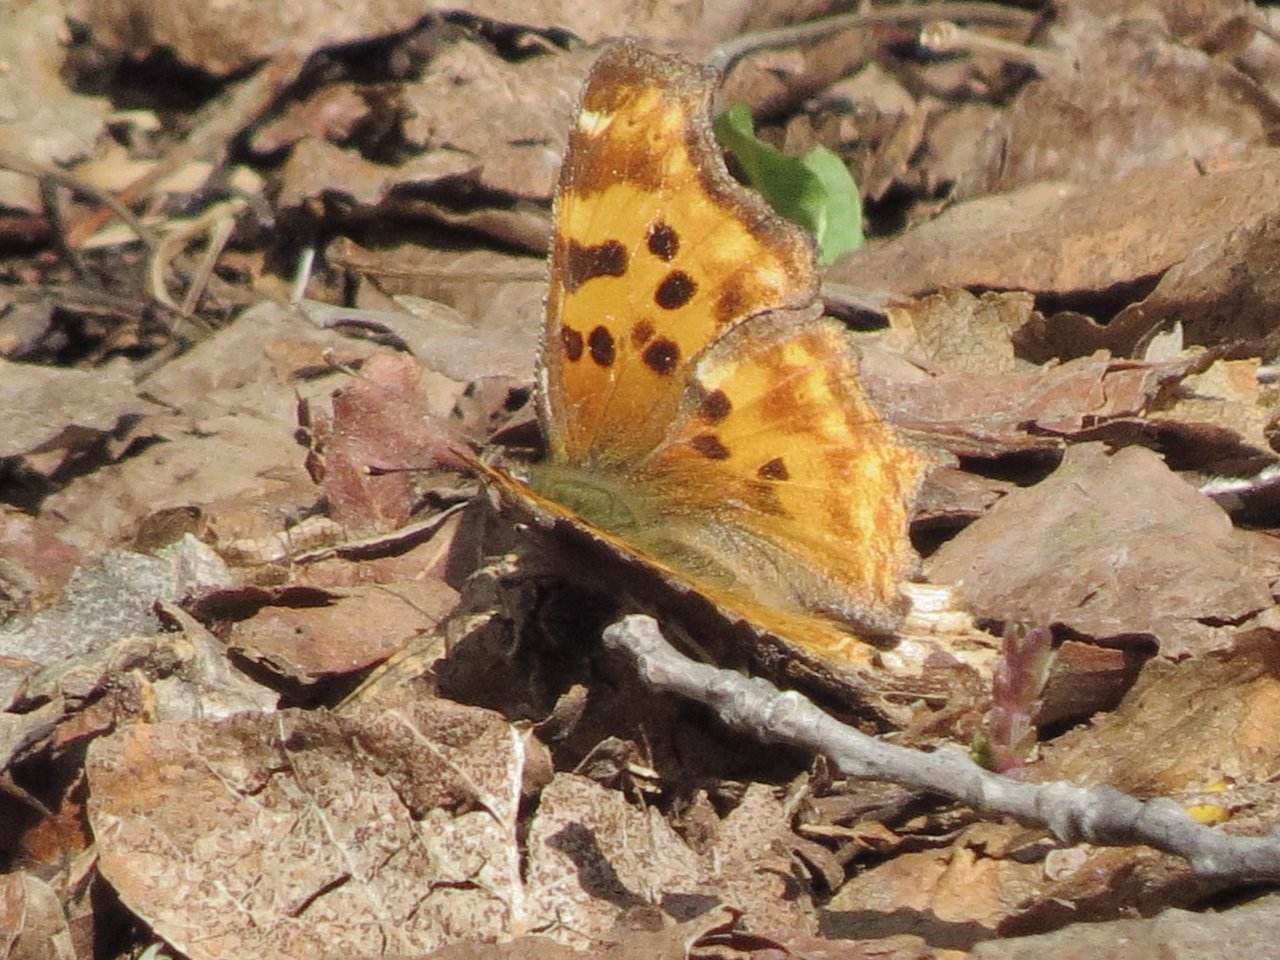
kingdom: Animalia
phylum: Arthropoda
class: Insecta
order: Lepidoptera
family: Nymphalidae
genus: Polygonia
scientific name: Polygonia satyrus
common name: Satyr Comma
